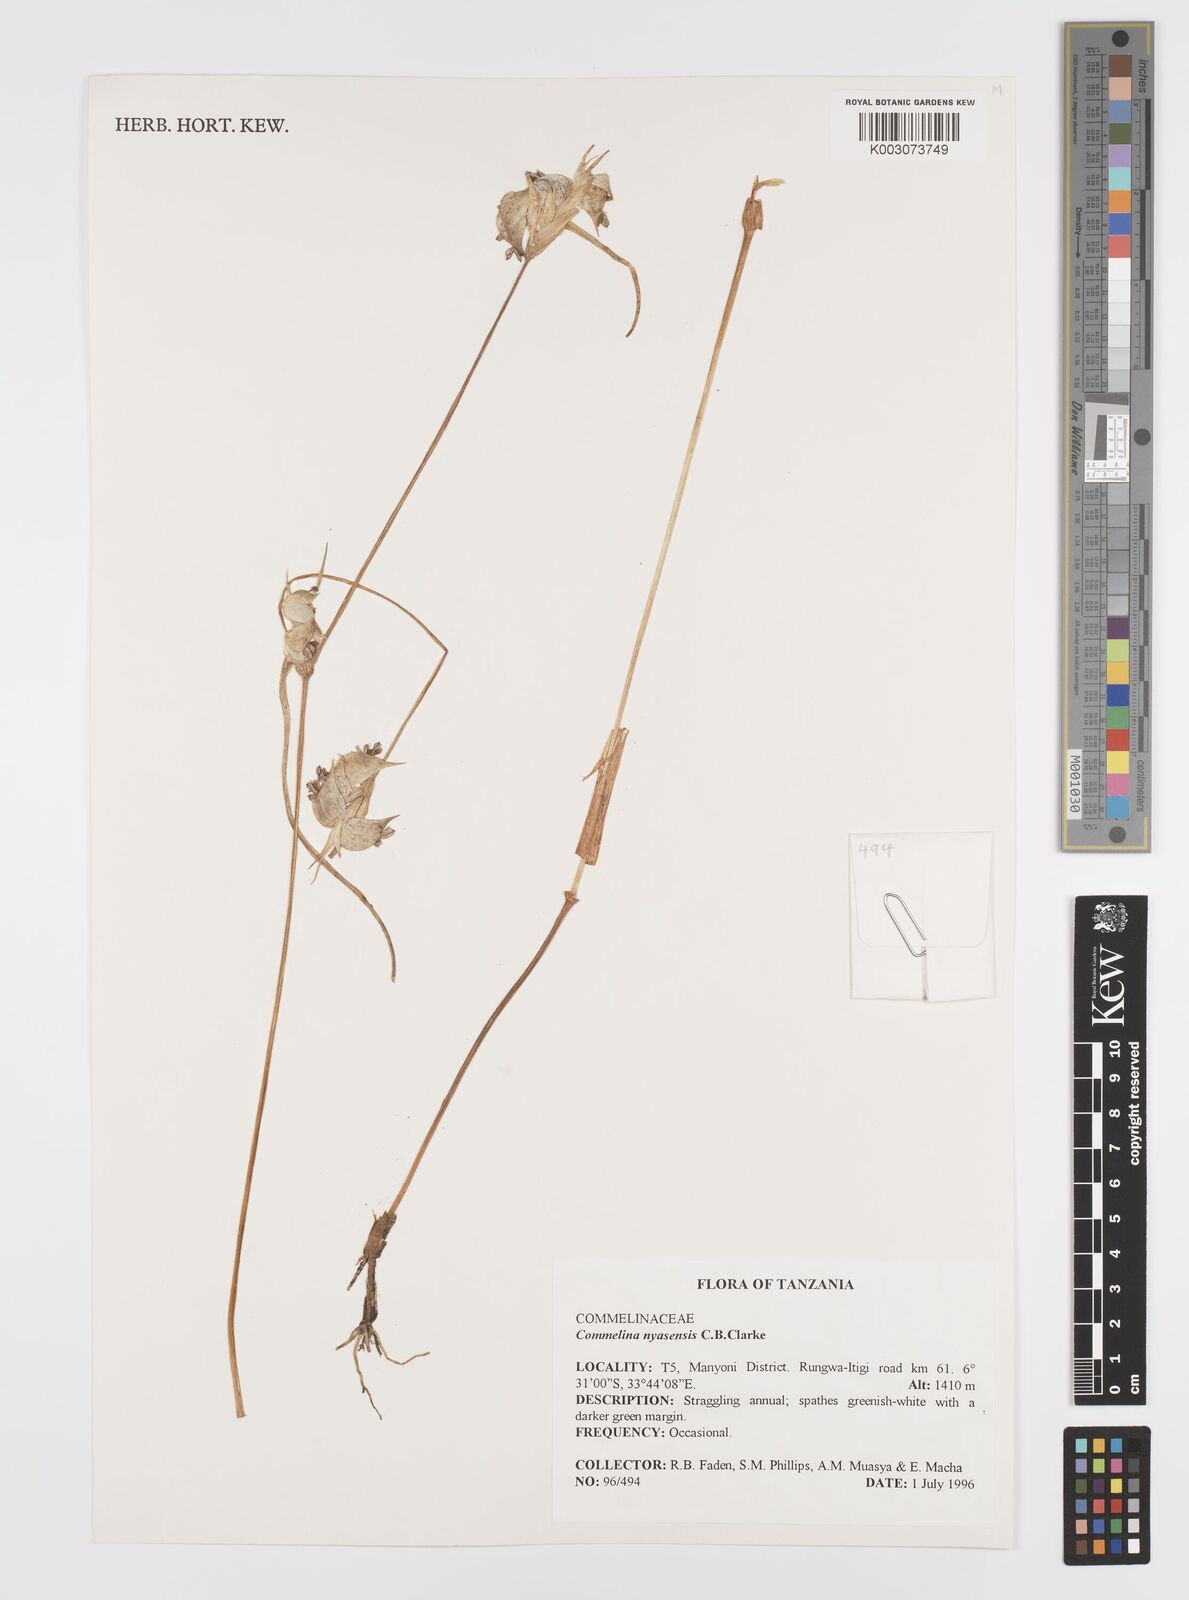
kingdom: Plantae
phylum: Tracheophyta
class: Liliopsida
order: Commelinales
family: Commelinaceae
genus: Commelina
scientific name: Commelina nyasensis
